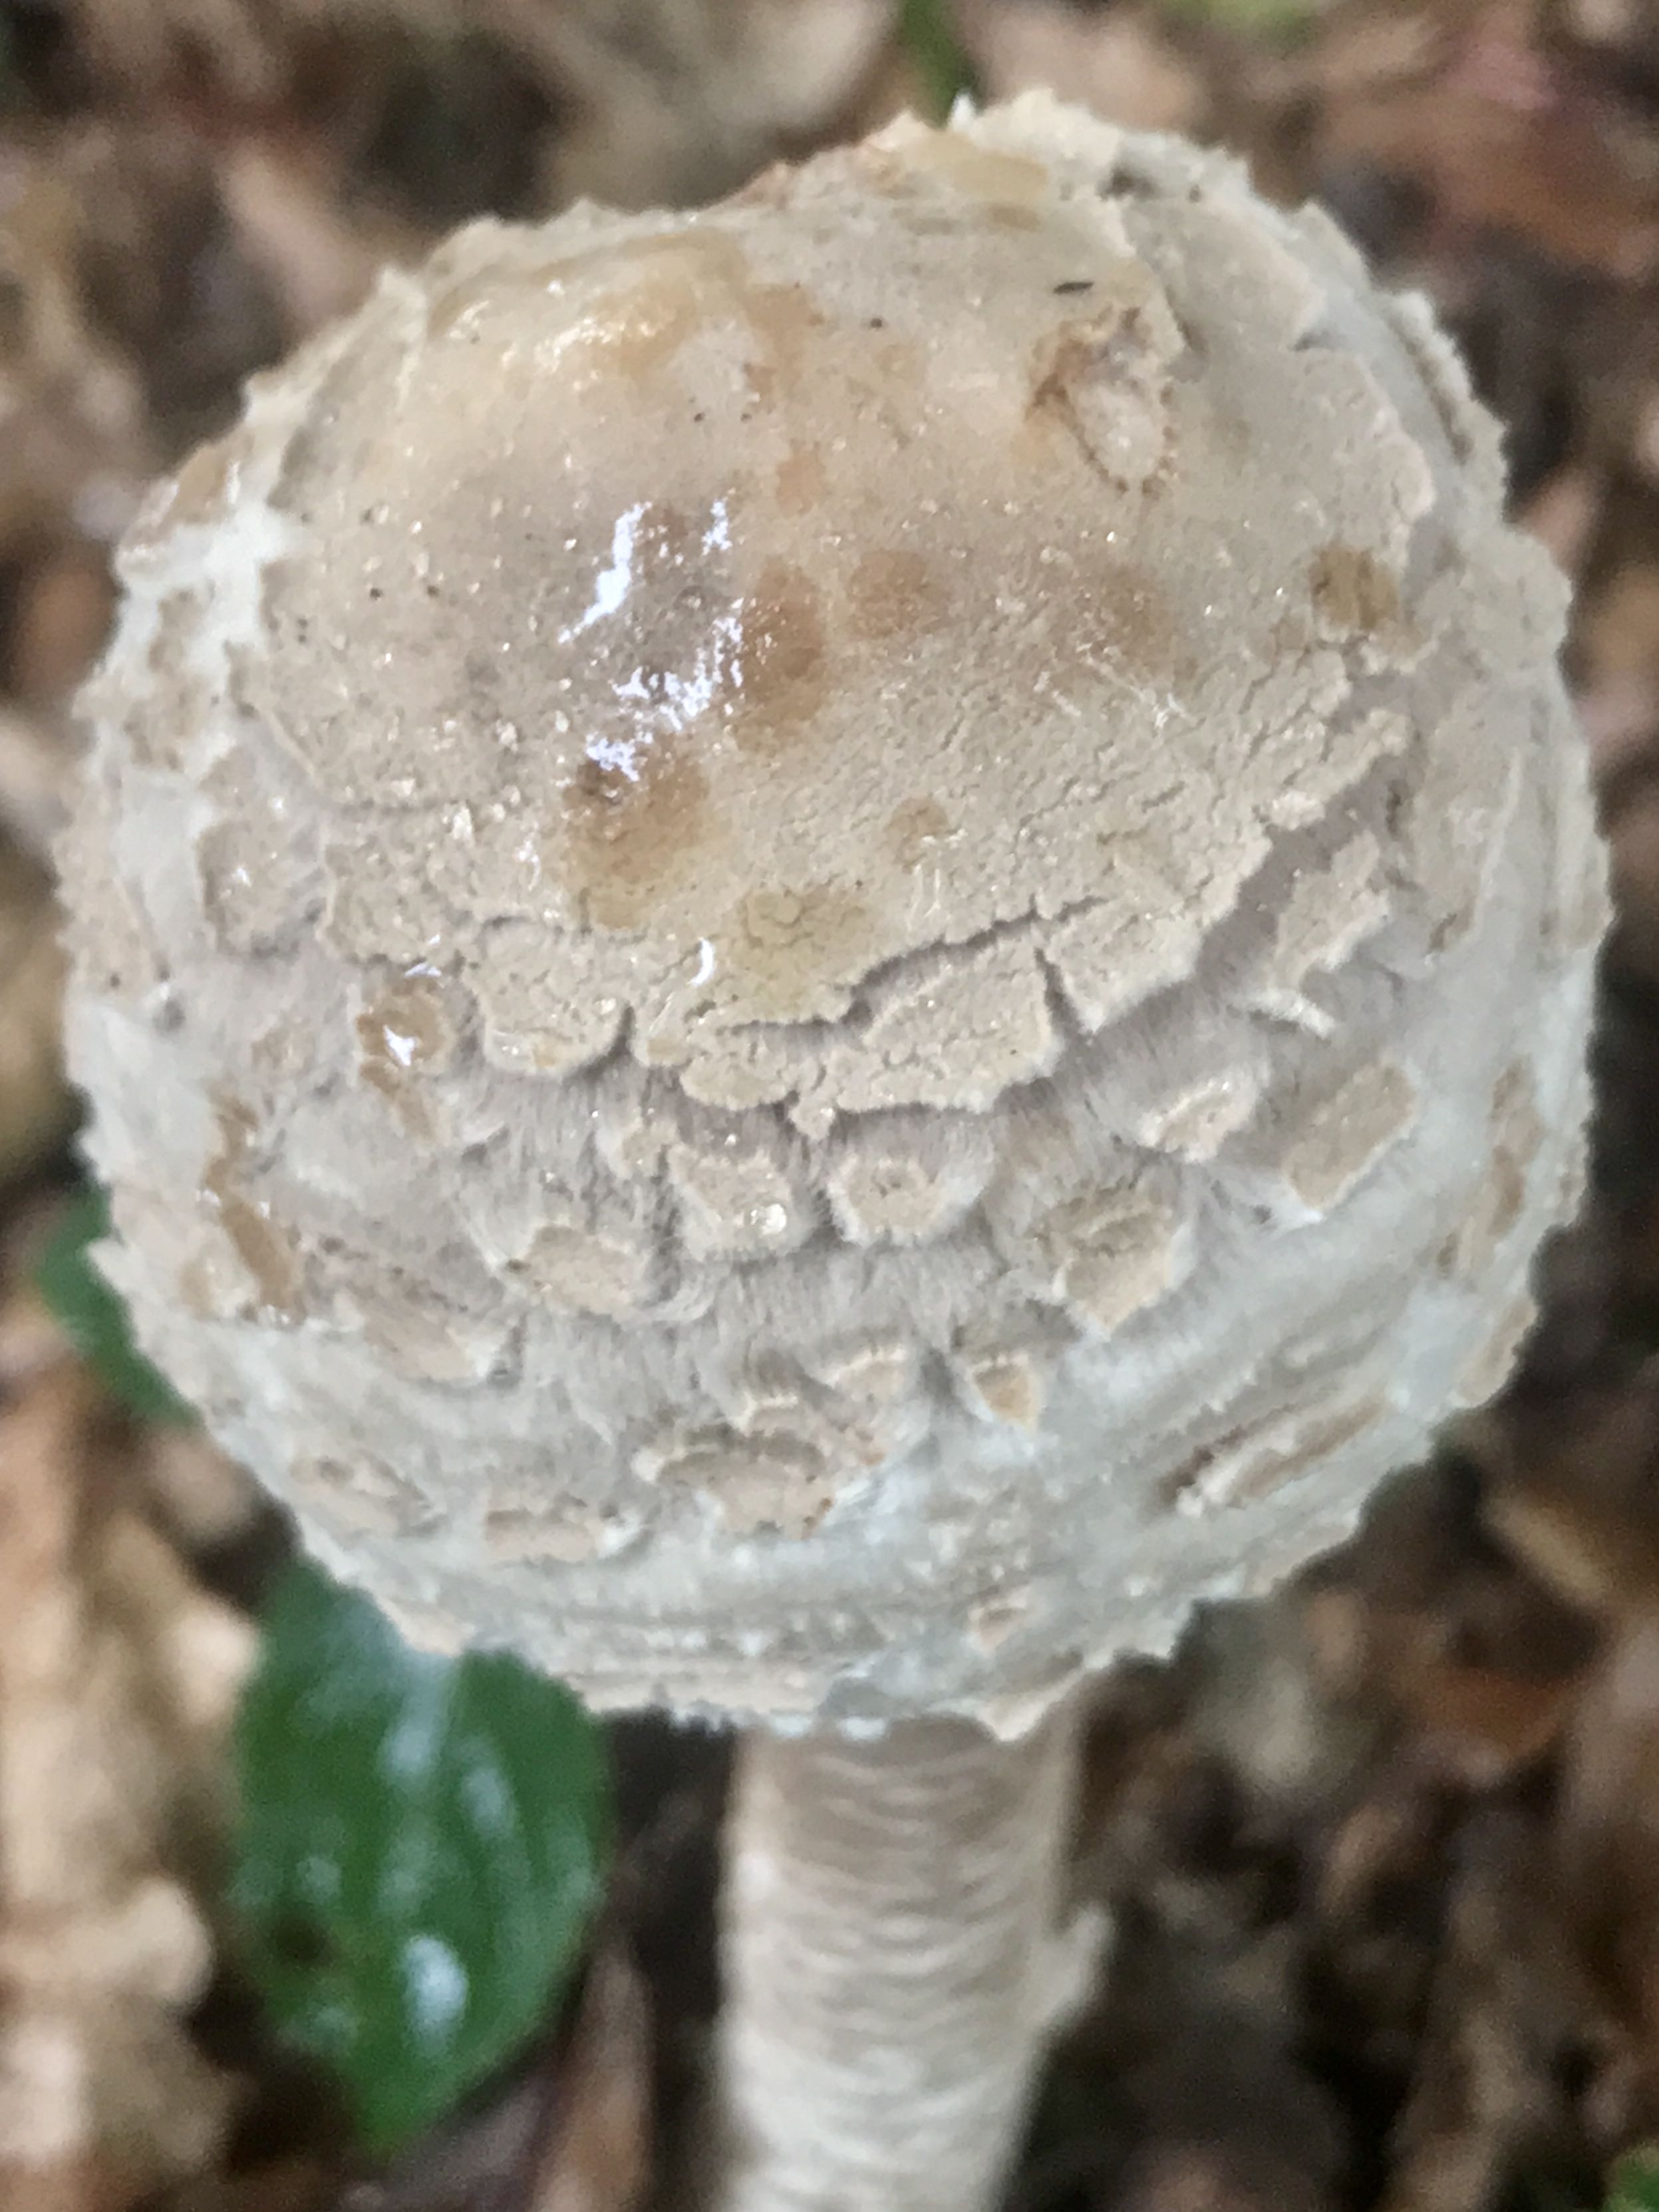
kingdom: Fungi
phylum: Basidiomycota
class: Agaricomycetes
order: Agaricales
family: Agaricaceae
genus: Macrolepiota
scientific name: Macrolepiota procera
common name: stor kæmpeparasolhat
